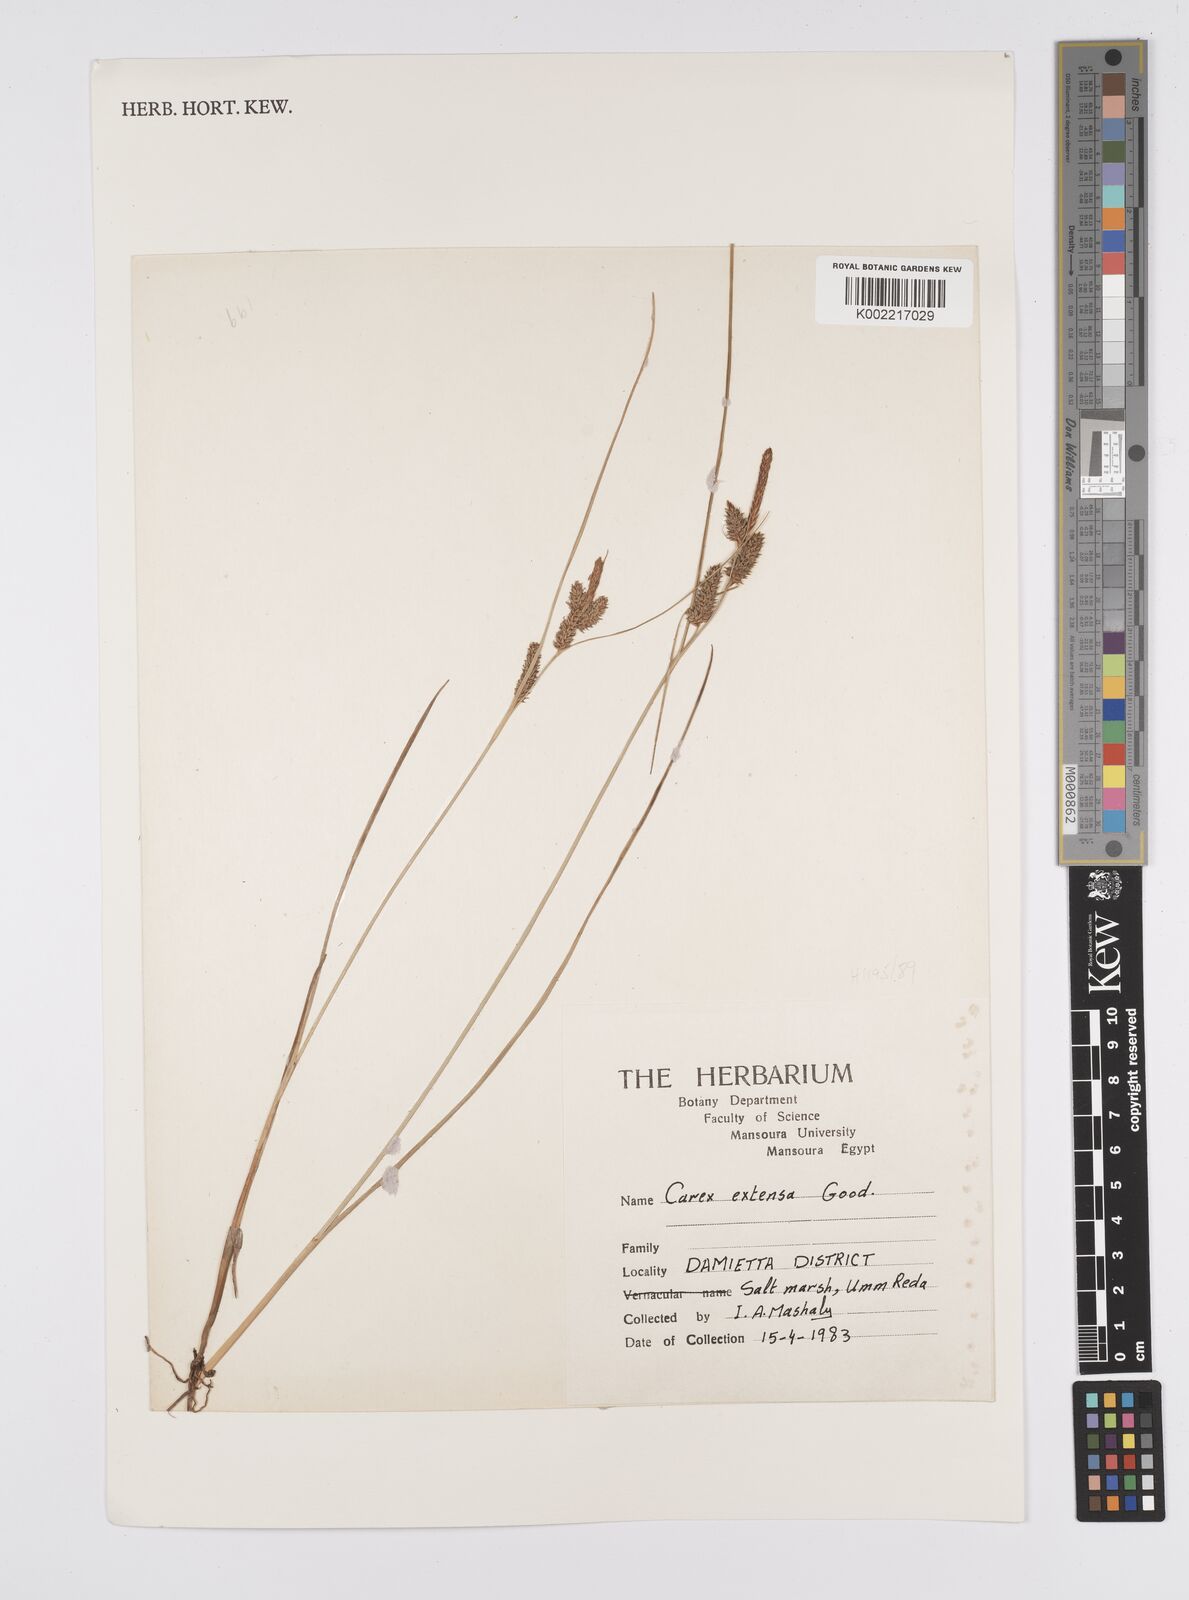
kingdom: Plantae
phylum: Tracheophyta
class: Liliopsida
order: Poales
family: Cyperaceae
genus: Carex
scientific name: Carex extensa
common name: Long-bracted sedge
